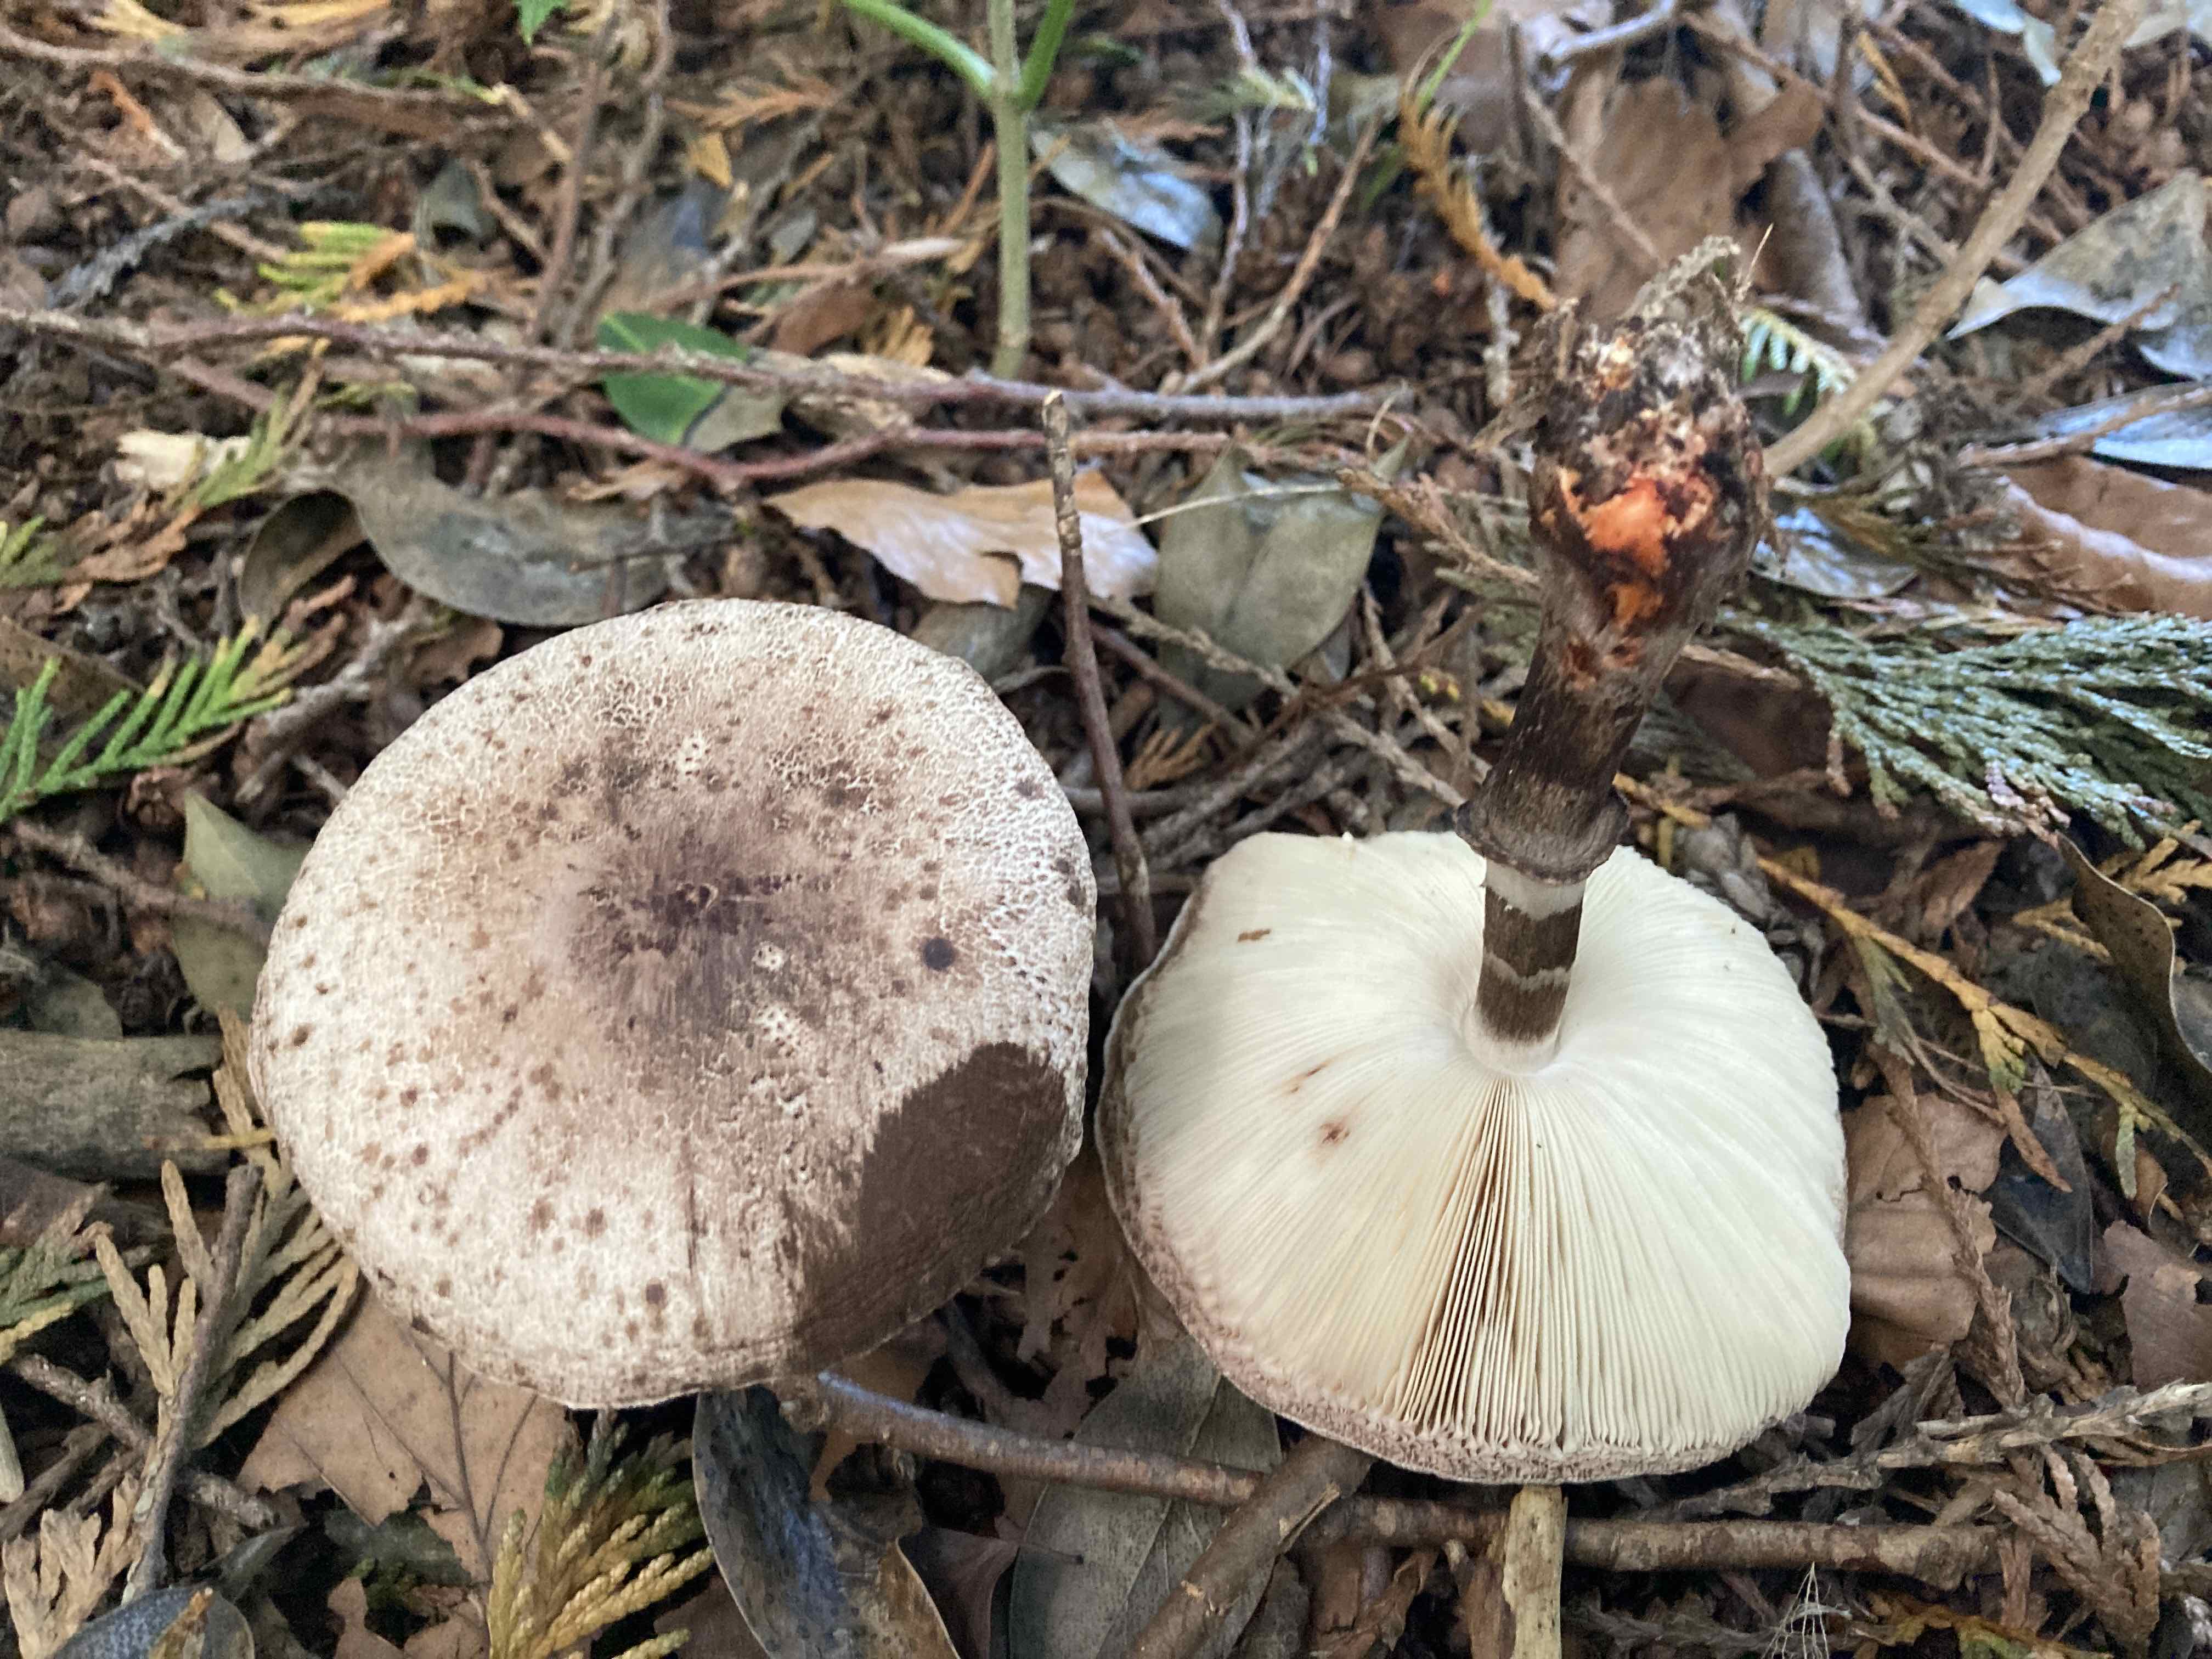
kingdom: Fungi
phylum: Basidiomycota
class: Agaricomycetes
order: Agaricales
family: Agaricaceae
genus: Leucoagaricus
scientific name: Leucoagaricus badhamii
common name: rødmende silkehat
